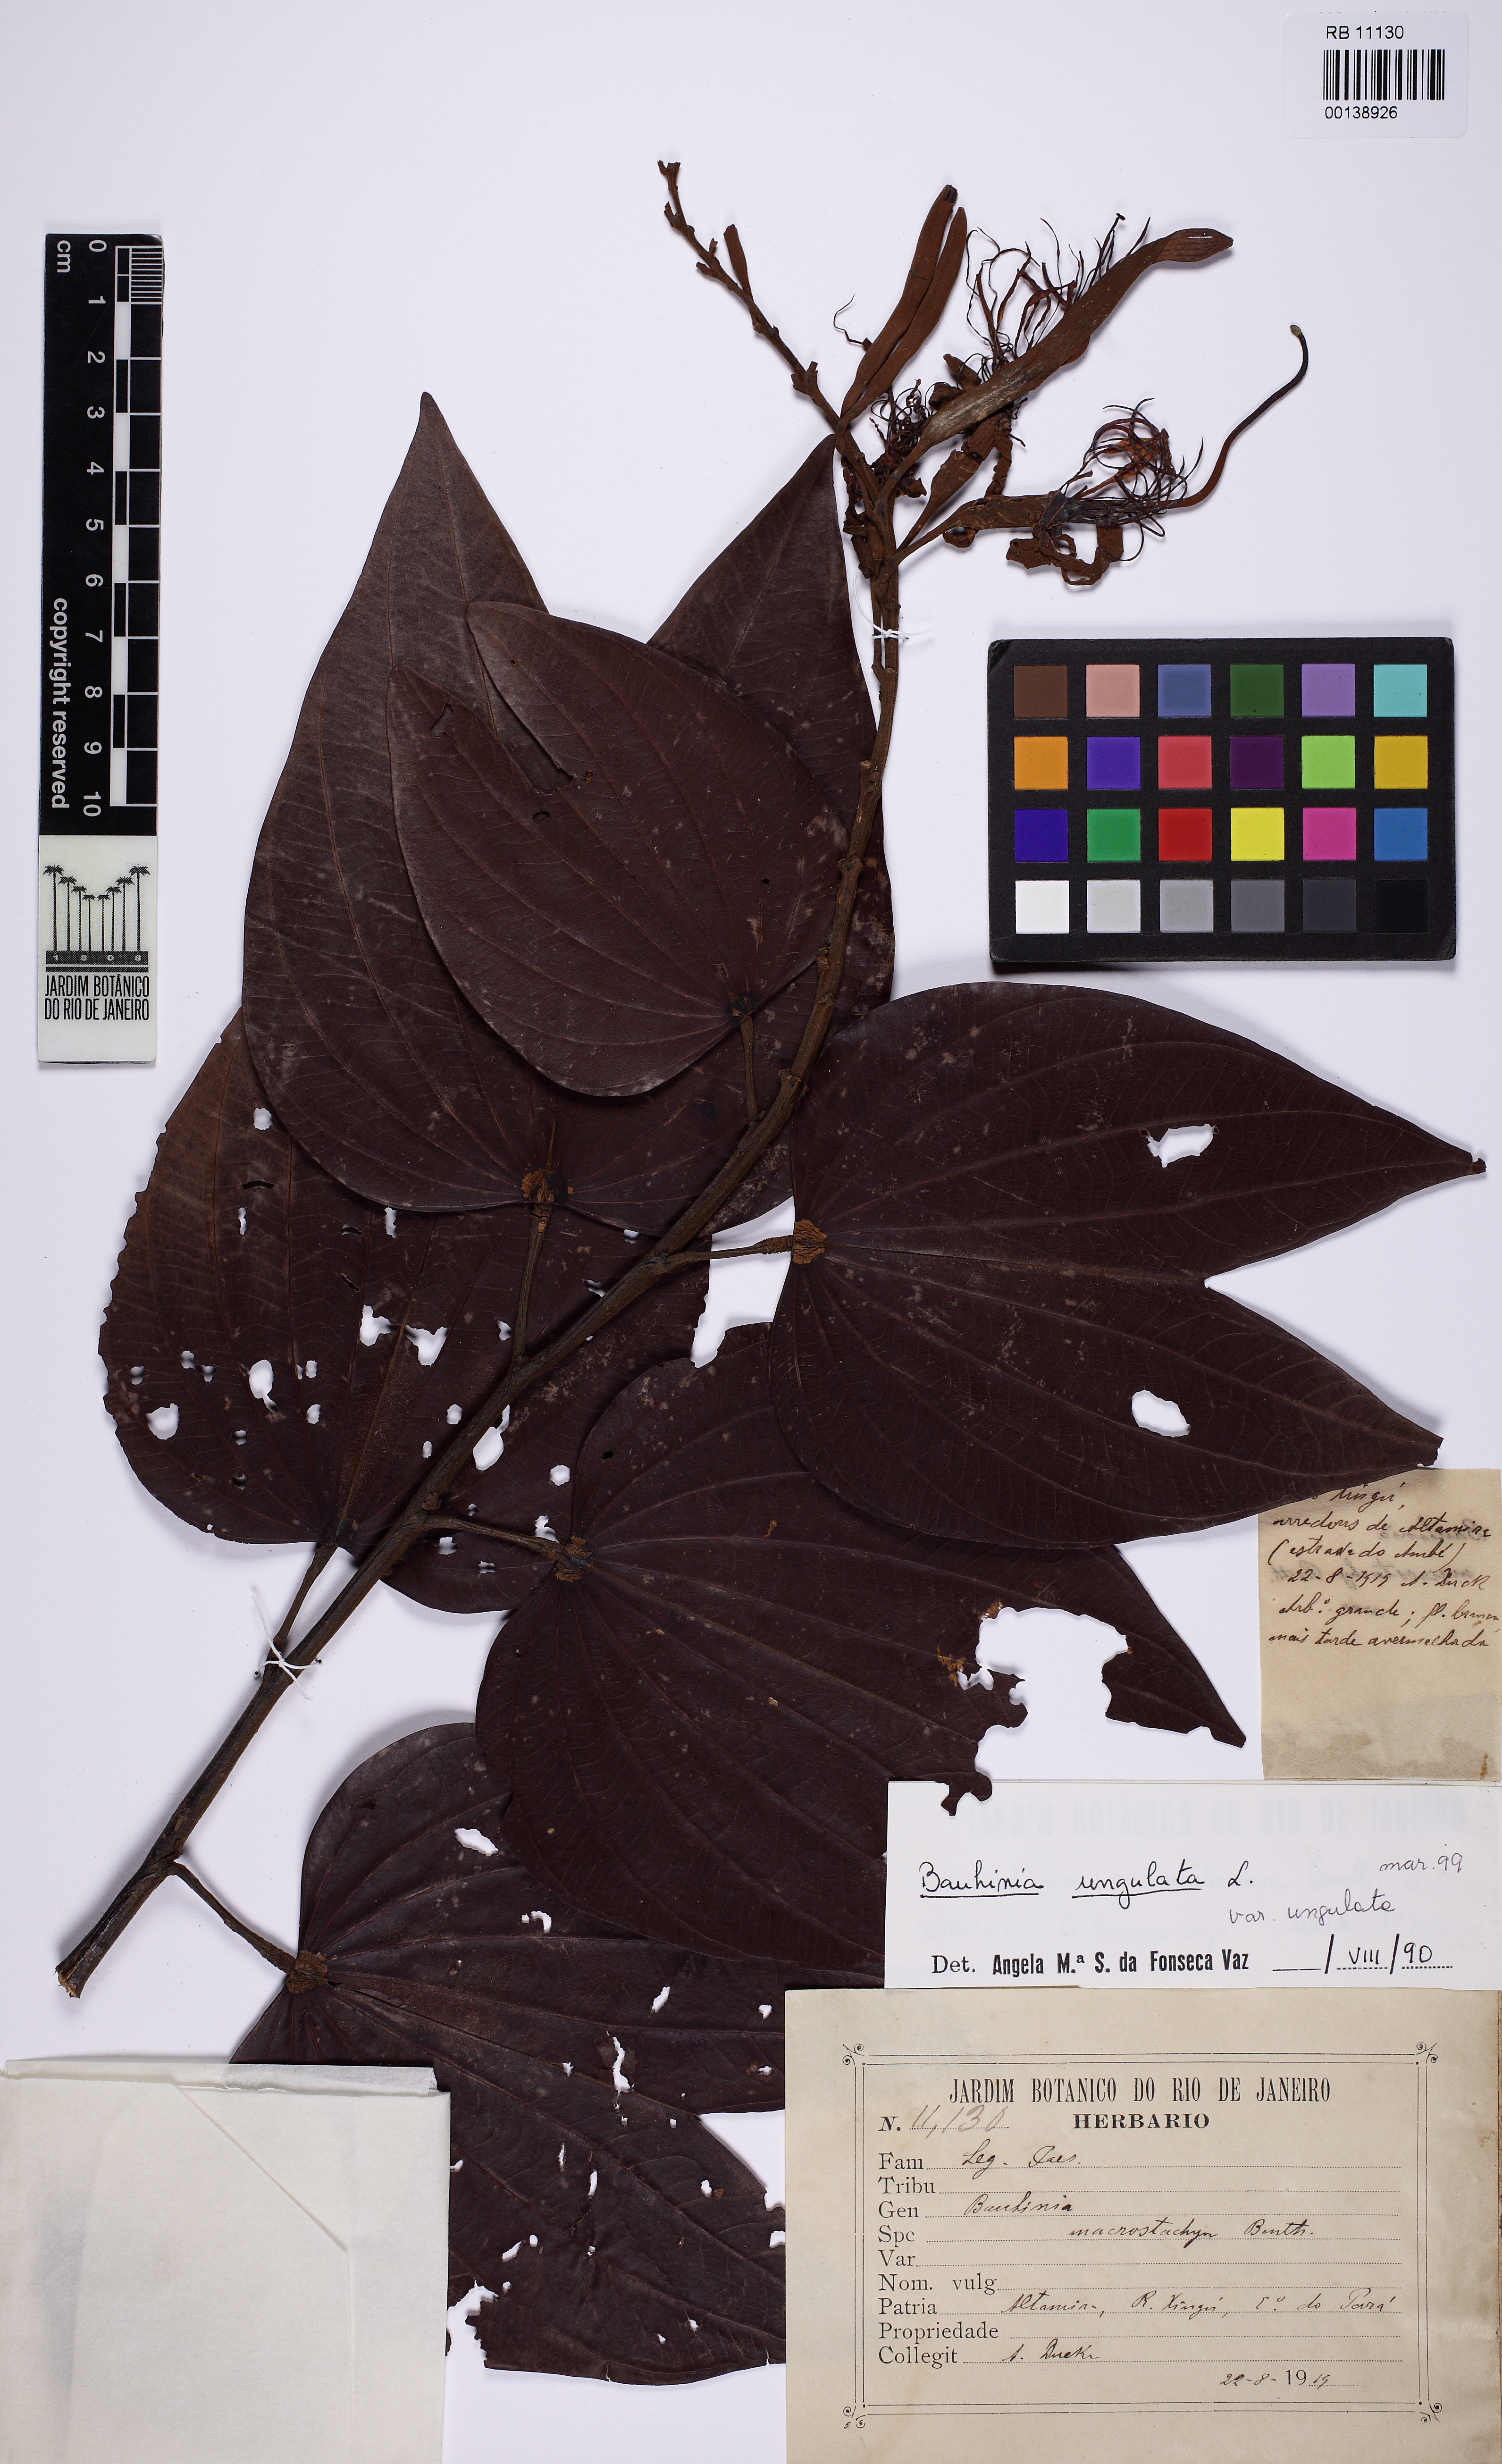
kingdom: Plantae
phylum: Tracheophyta
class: Magnoliopsida
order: Fabales
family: Fabaceae
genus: Bauhinia
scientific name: Bauhinia ungulata
